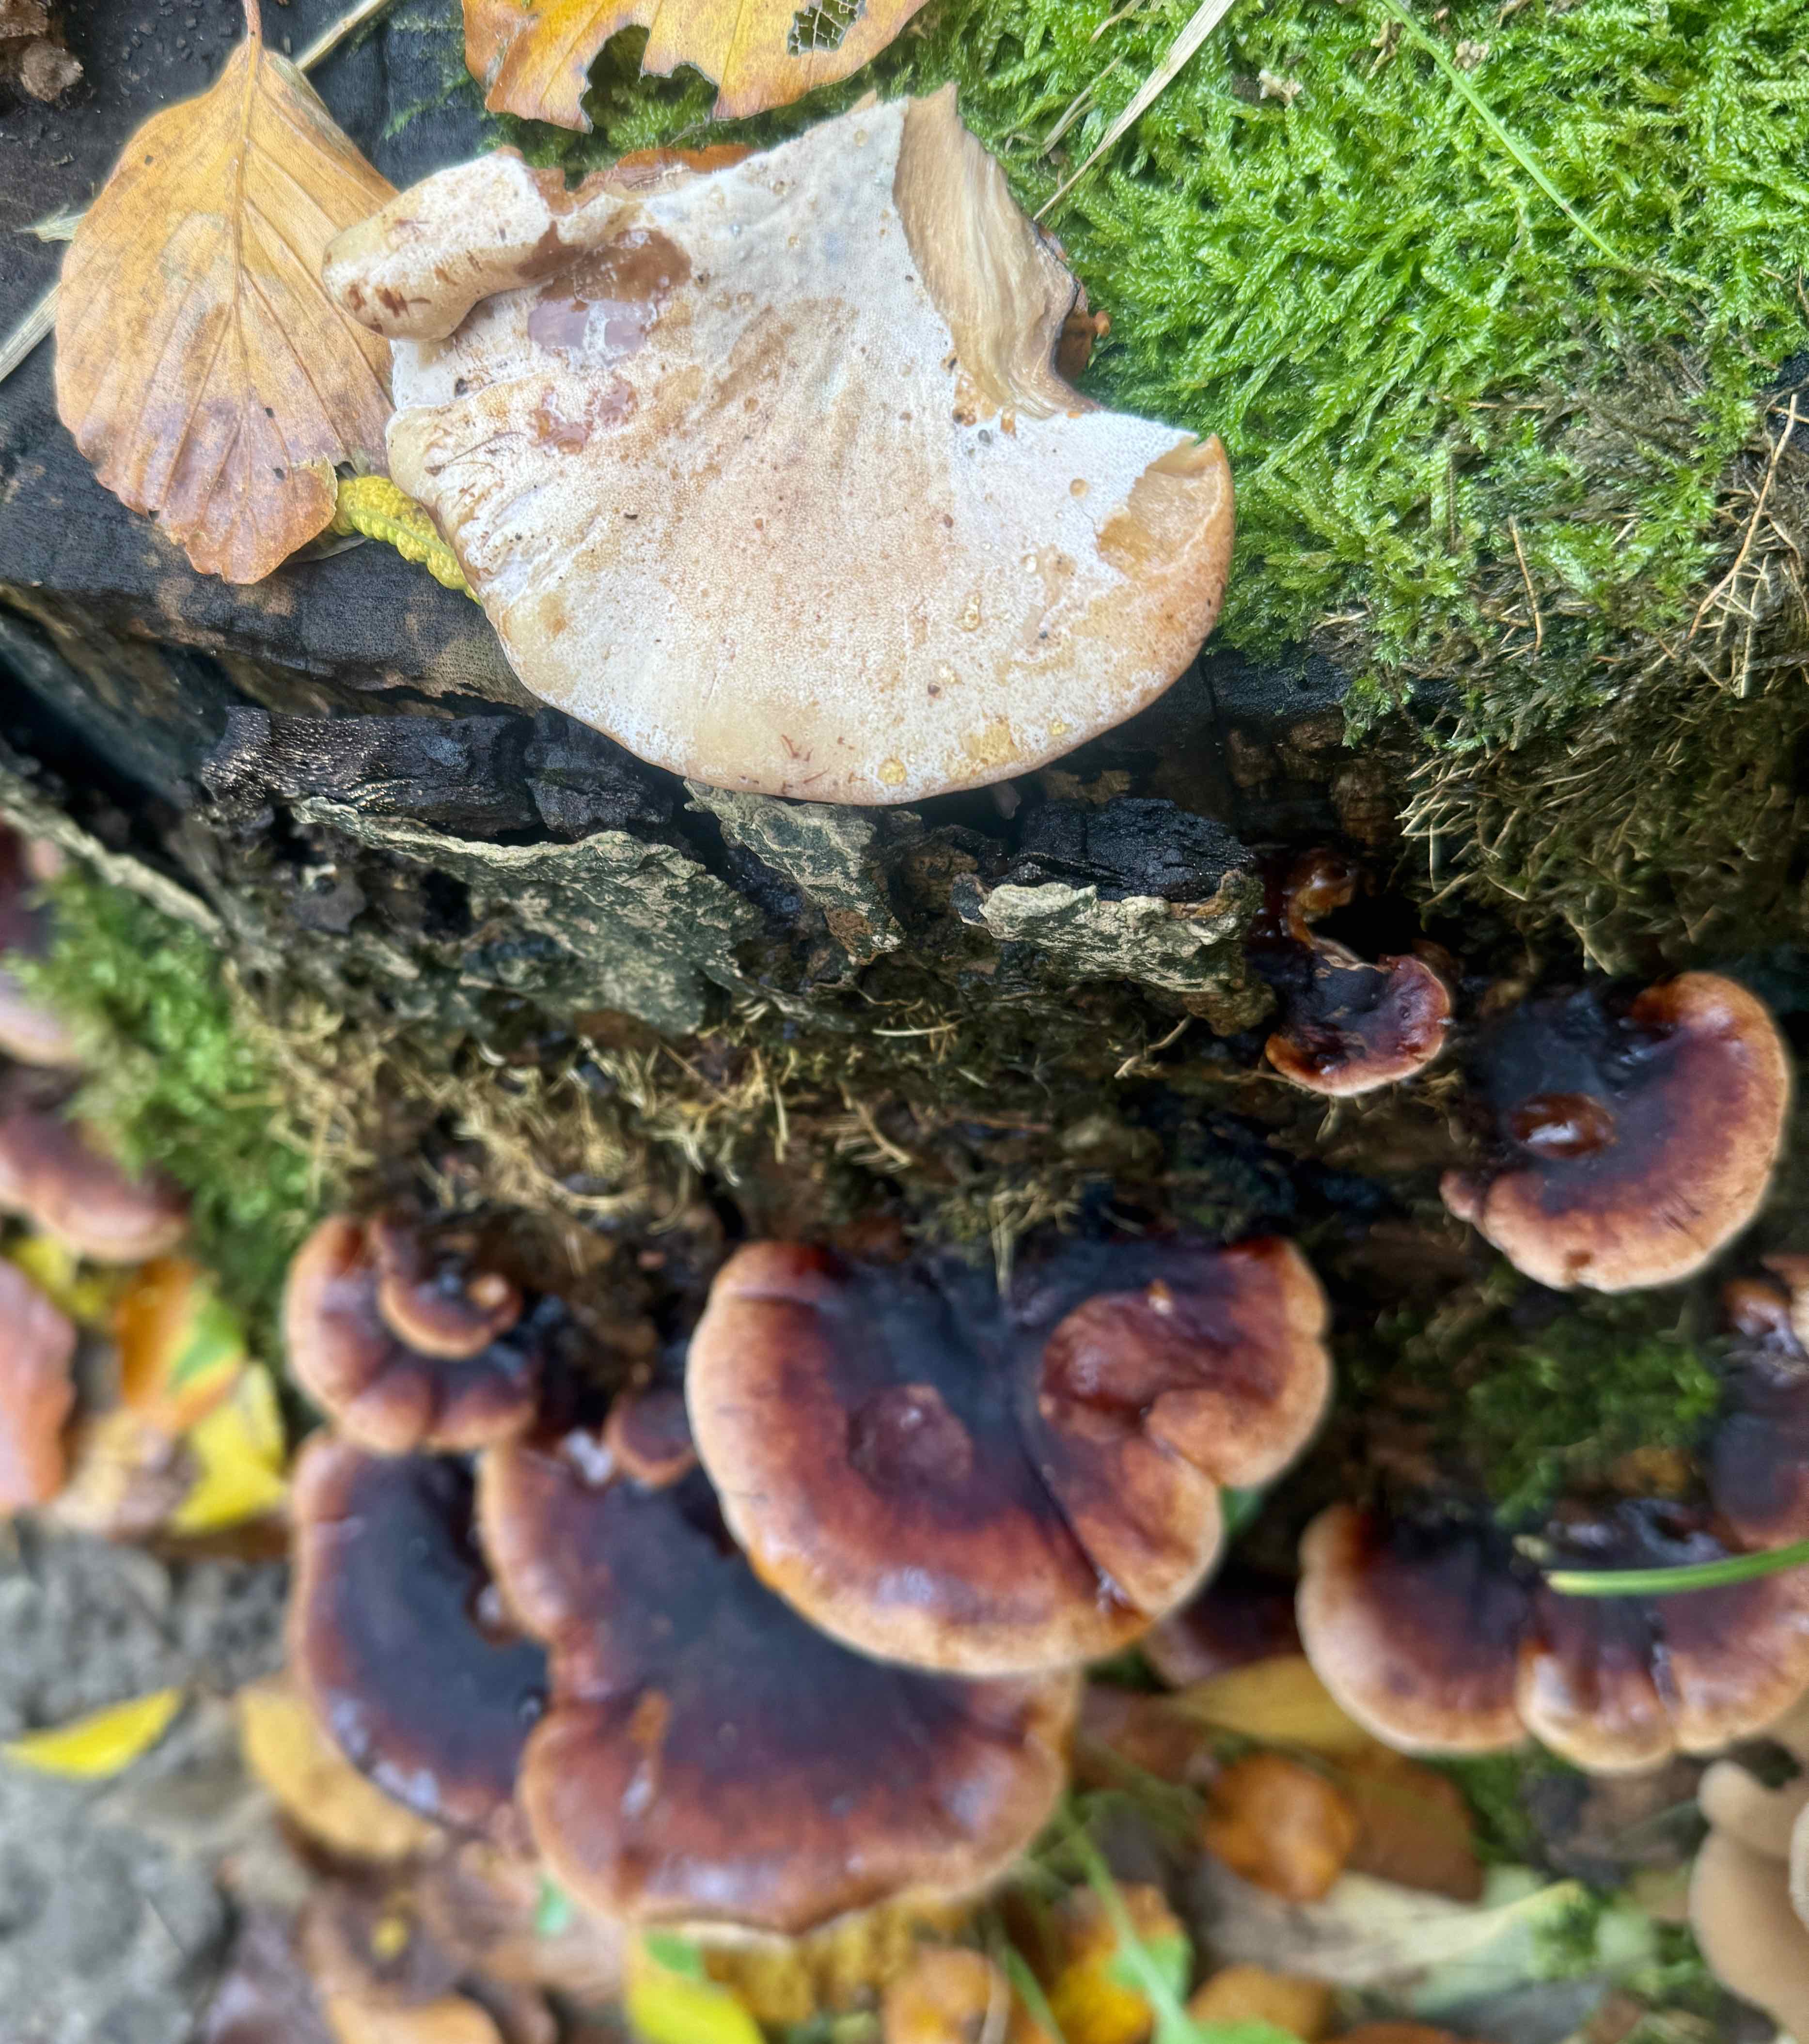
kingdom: Fungi
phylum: Basidiomycota
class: Agaricomycetes
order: Polyporales
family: Ischnodermataceae
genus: Ischnoderma
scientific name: Ischnoderma resinosum
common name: løv-tjæreporesvamp
